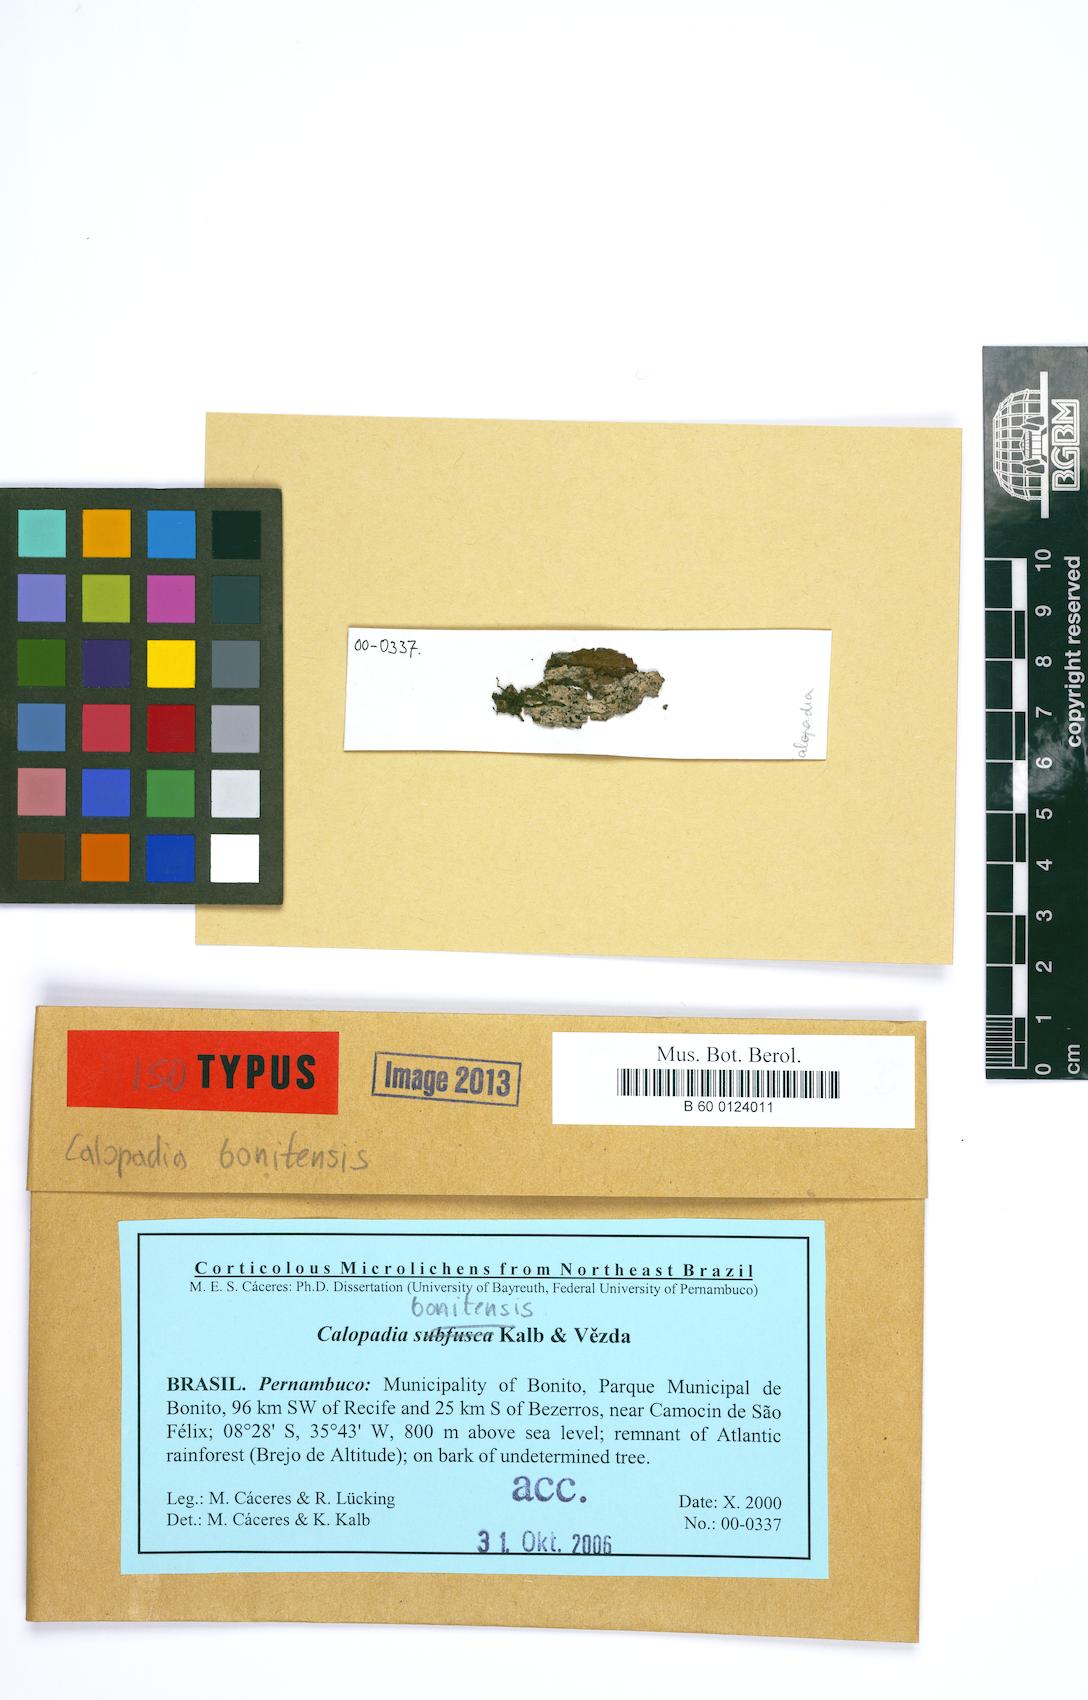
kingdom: Fungi
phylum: Ascomycota
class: Lecanoromycetes
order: Lecanorales
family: Byssolomataceae
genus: Calopadia
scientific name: Calopadia bonitensis
